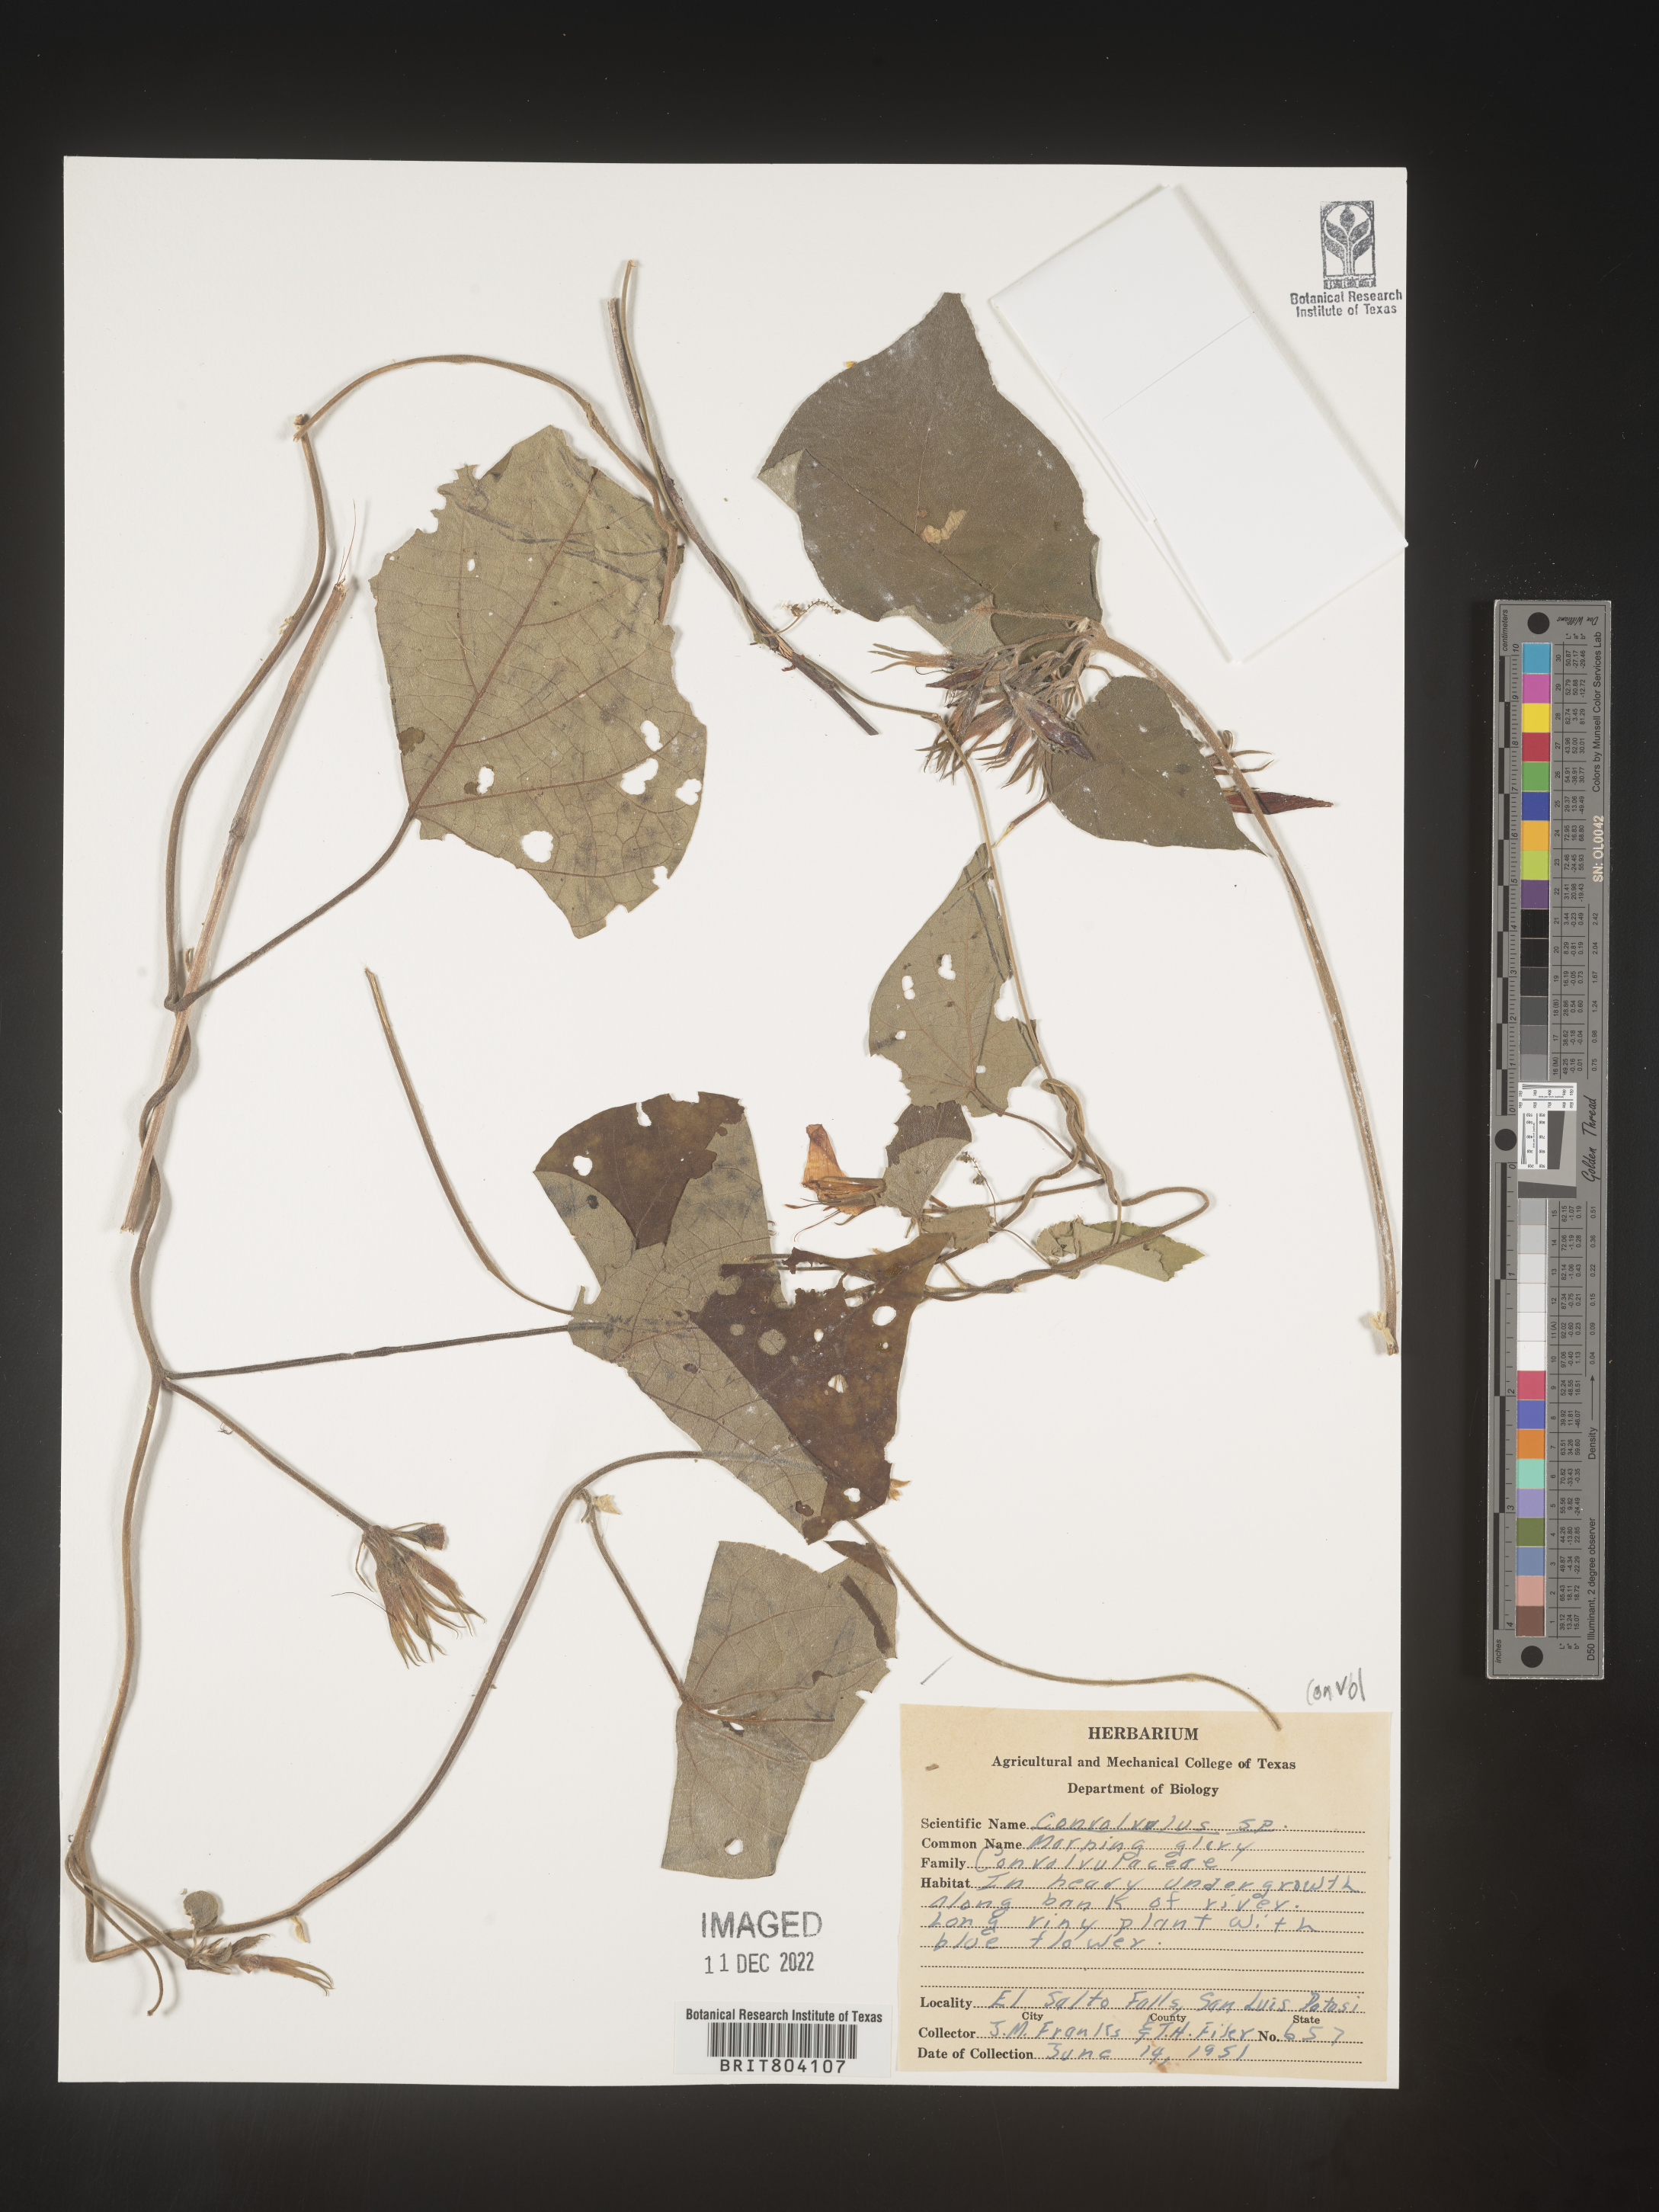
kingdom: Plantae
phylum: Tracheophyta
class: Magnoliopsida
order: Solanales
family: Convolvulaceae
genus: Convolvulus
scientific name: Convolvulus
